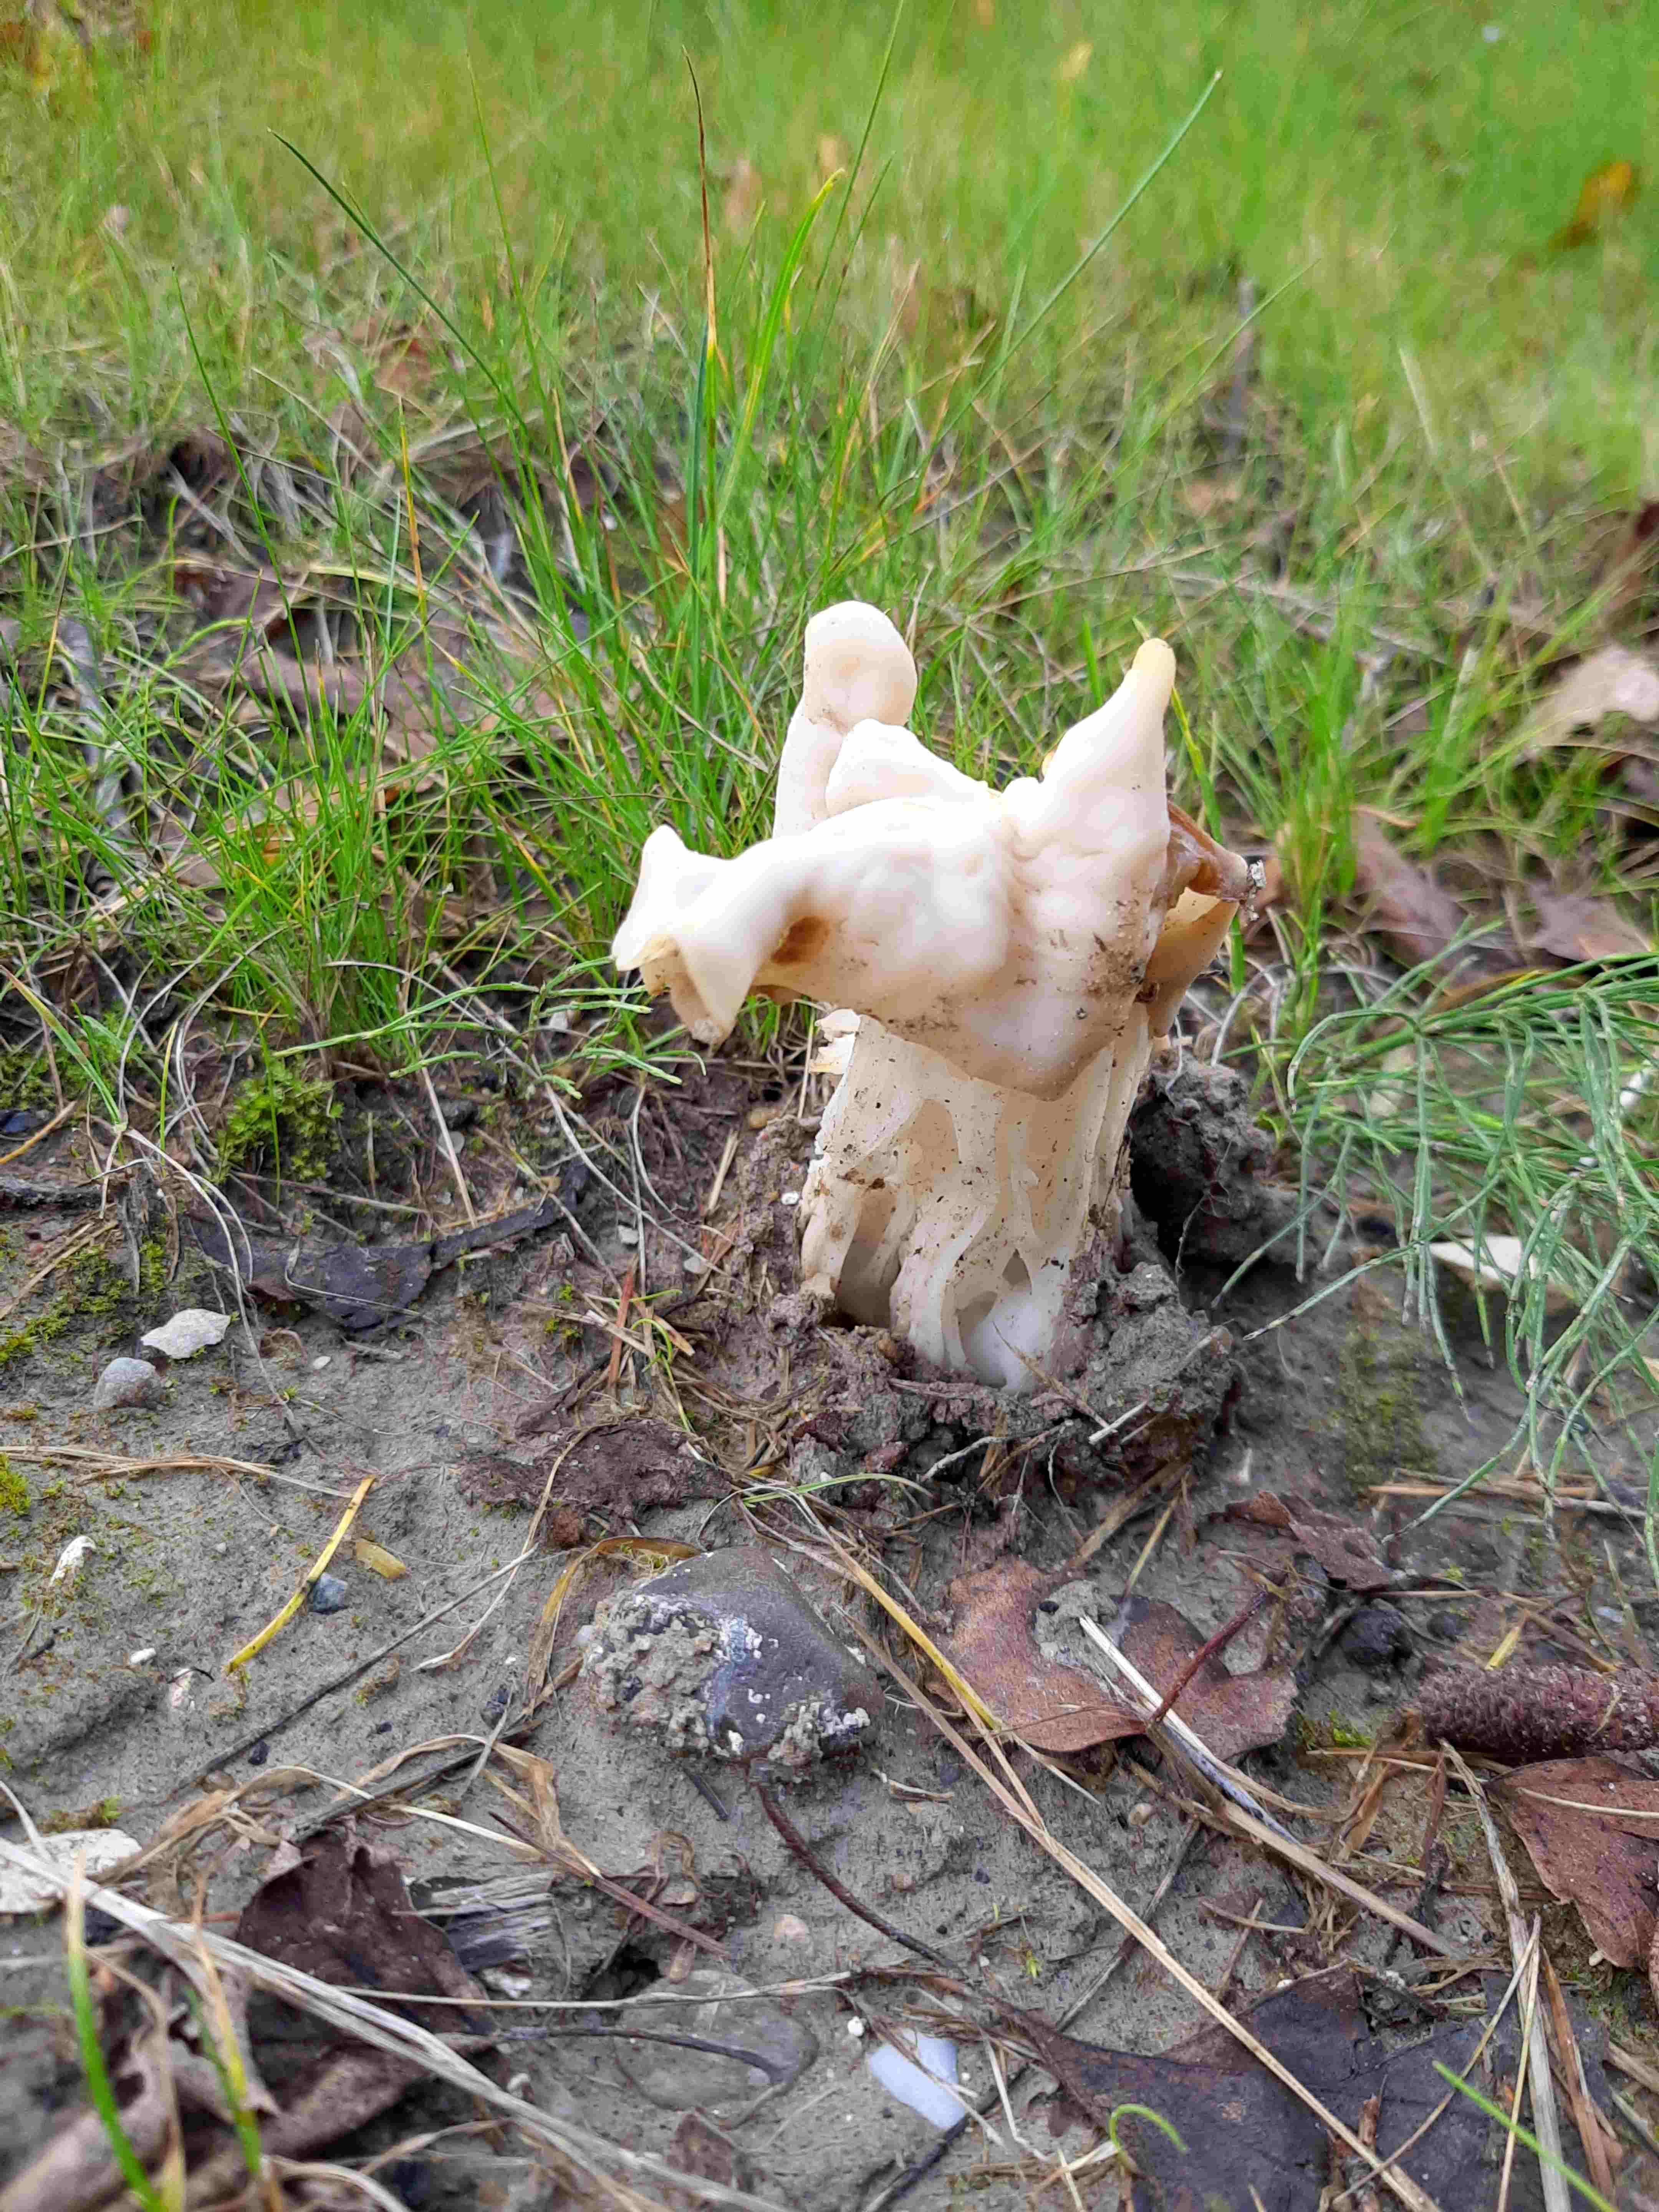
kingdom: Fungi
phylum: Ascomycota
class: Pezizomycetes
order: Pezizales
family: Helvellaceae
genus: Helvella
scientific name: Helvella crispa
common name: kruset foldhat
